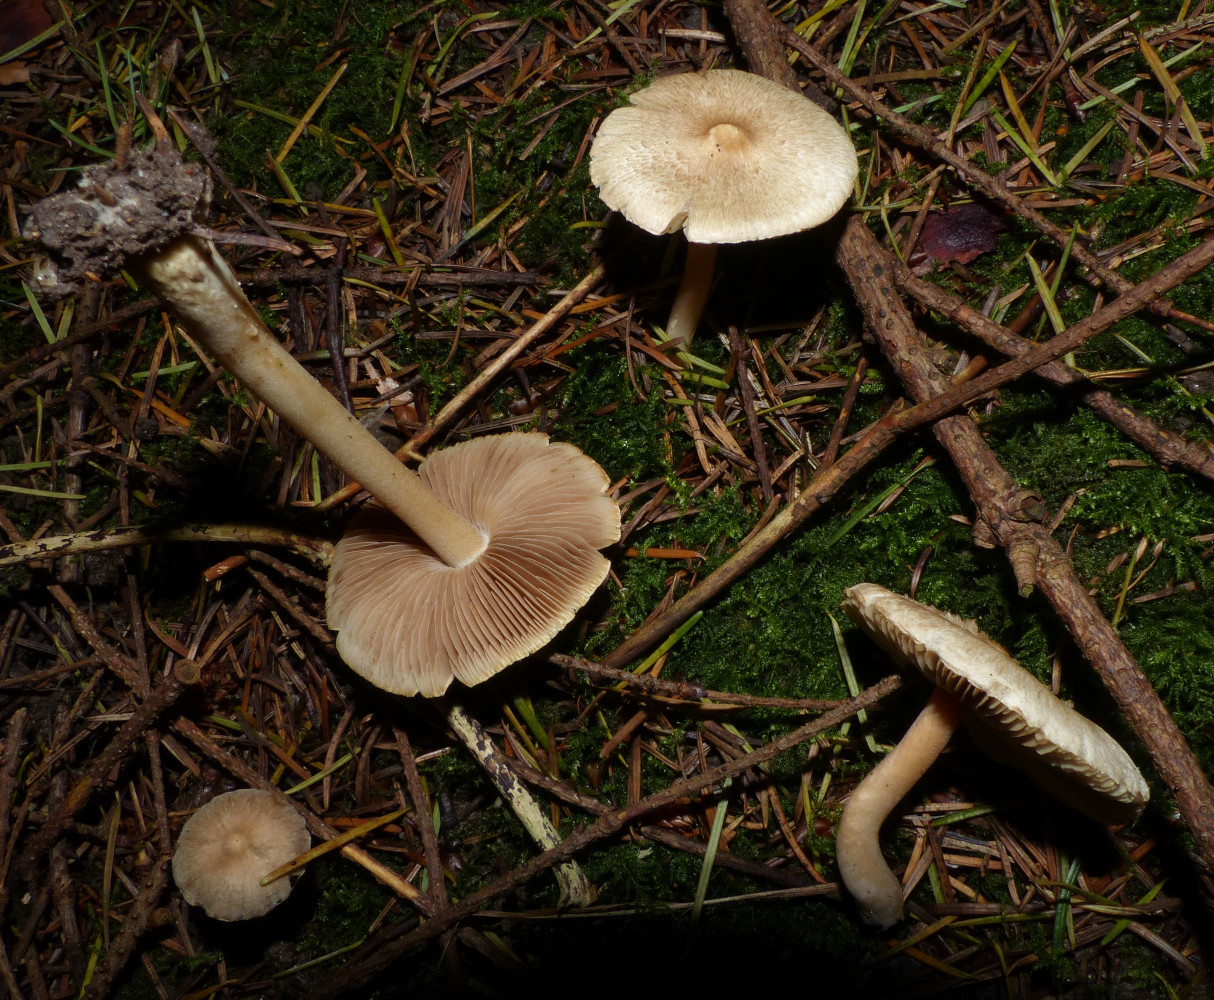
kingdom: Fungi
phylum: Basidiomycota
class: Agaricomycetes
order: Agaricales
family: Inocybaceae
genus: Inocybe
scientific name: Inocybe
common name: trævlhat
